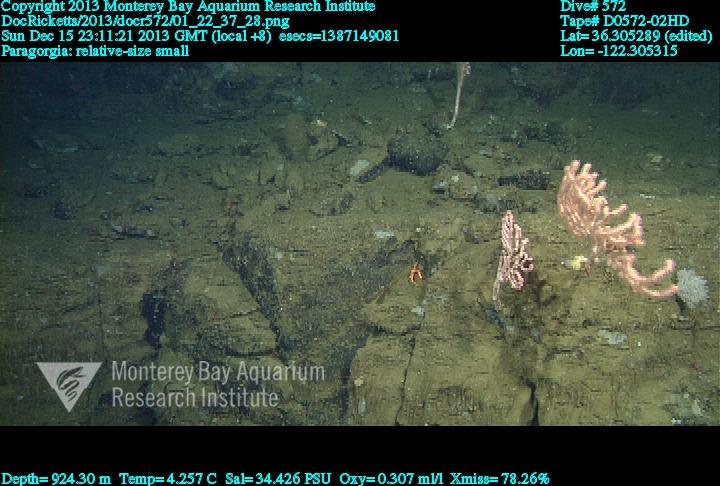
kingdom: Animalia
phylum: Cnidaria
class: Anthozoa
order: Scleralcyonacea
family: Coralliidae
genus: Sibogagorgia
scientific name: Sibogagorgia cauliflora
